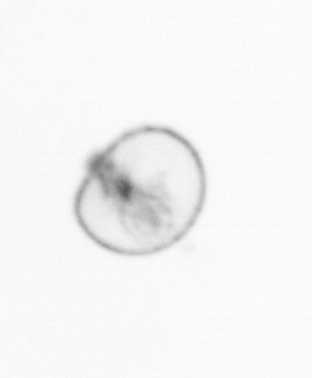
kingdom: Chromista
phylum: Myzozoa
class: Dinophyceae
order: Noctilucales
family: Noctilucaceae
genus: Noctiluca
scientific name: Noctiluca scintillans
